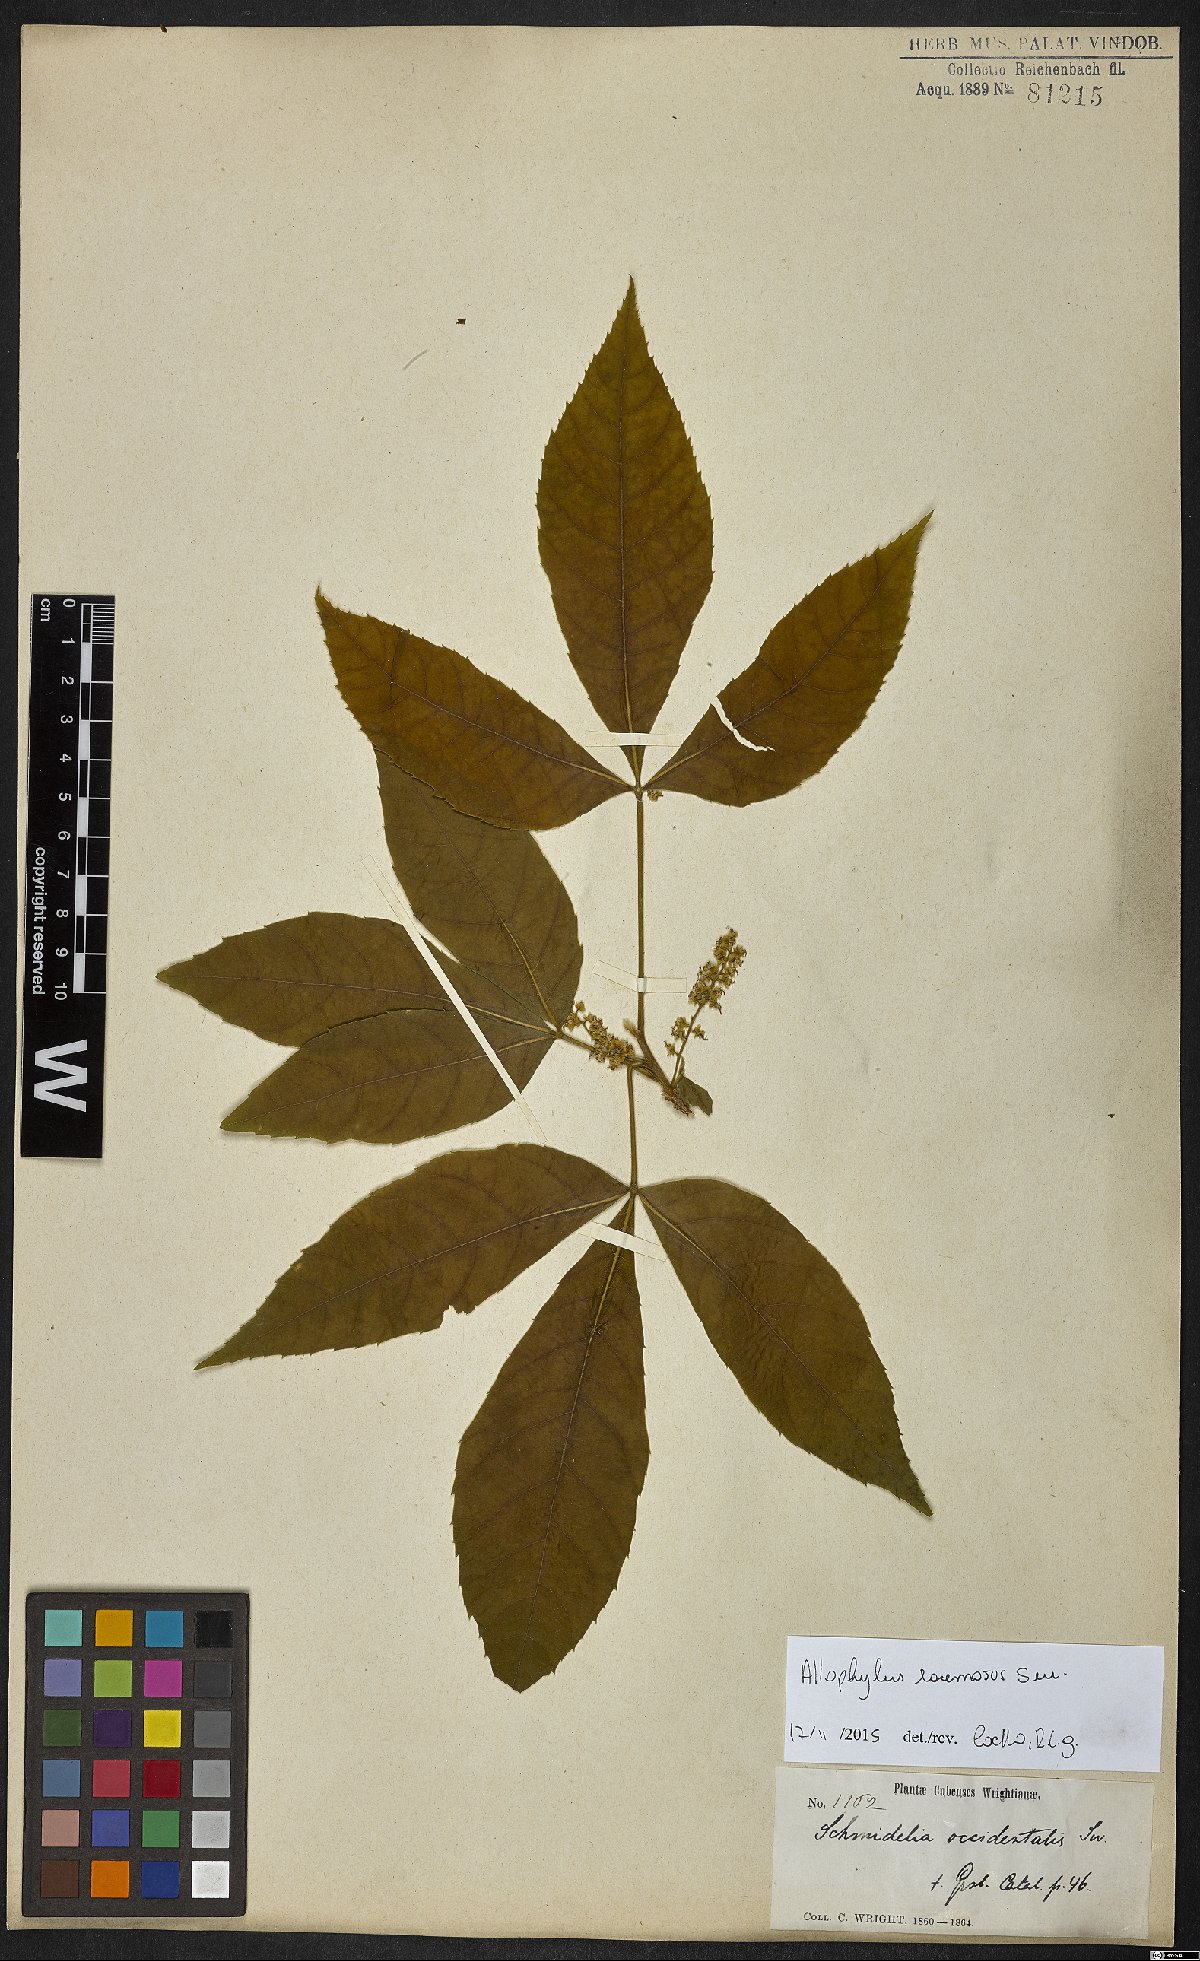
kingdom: Plantae
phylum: Tracheophyta
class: Magnoliopsida
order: Sapindales
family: Sapindaceae
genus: Allophylus
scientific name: Allophylus racemosus
